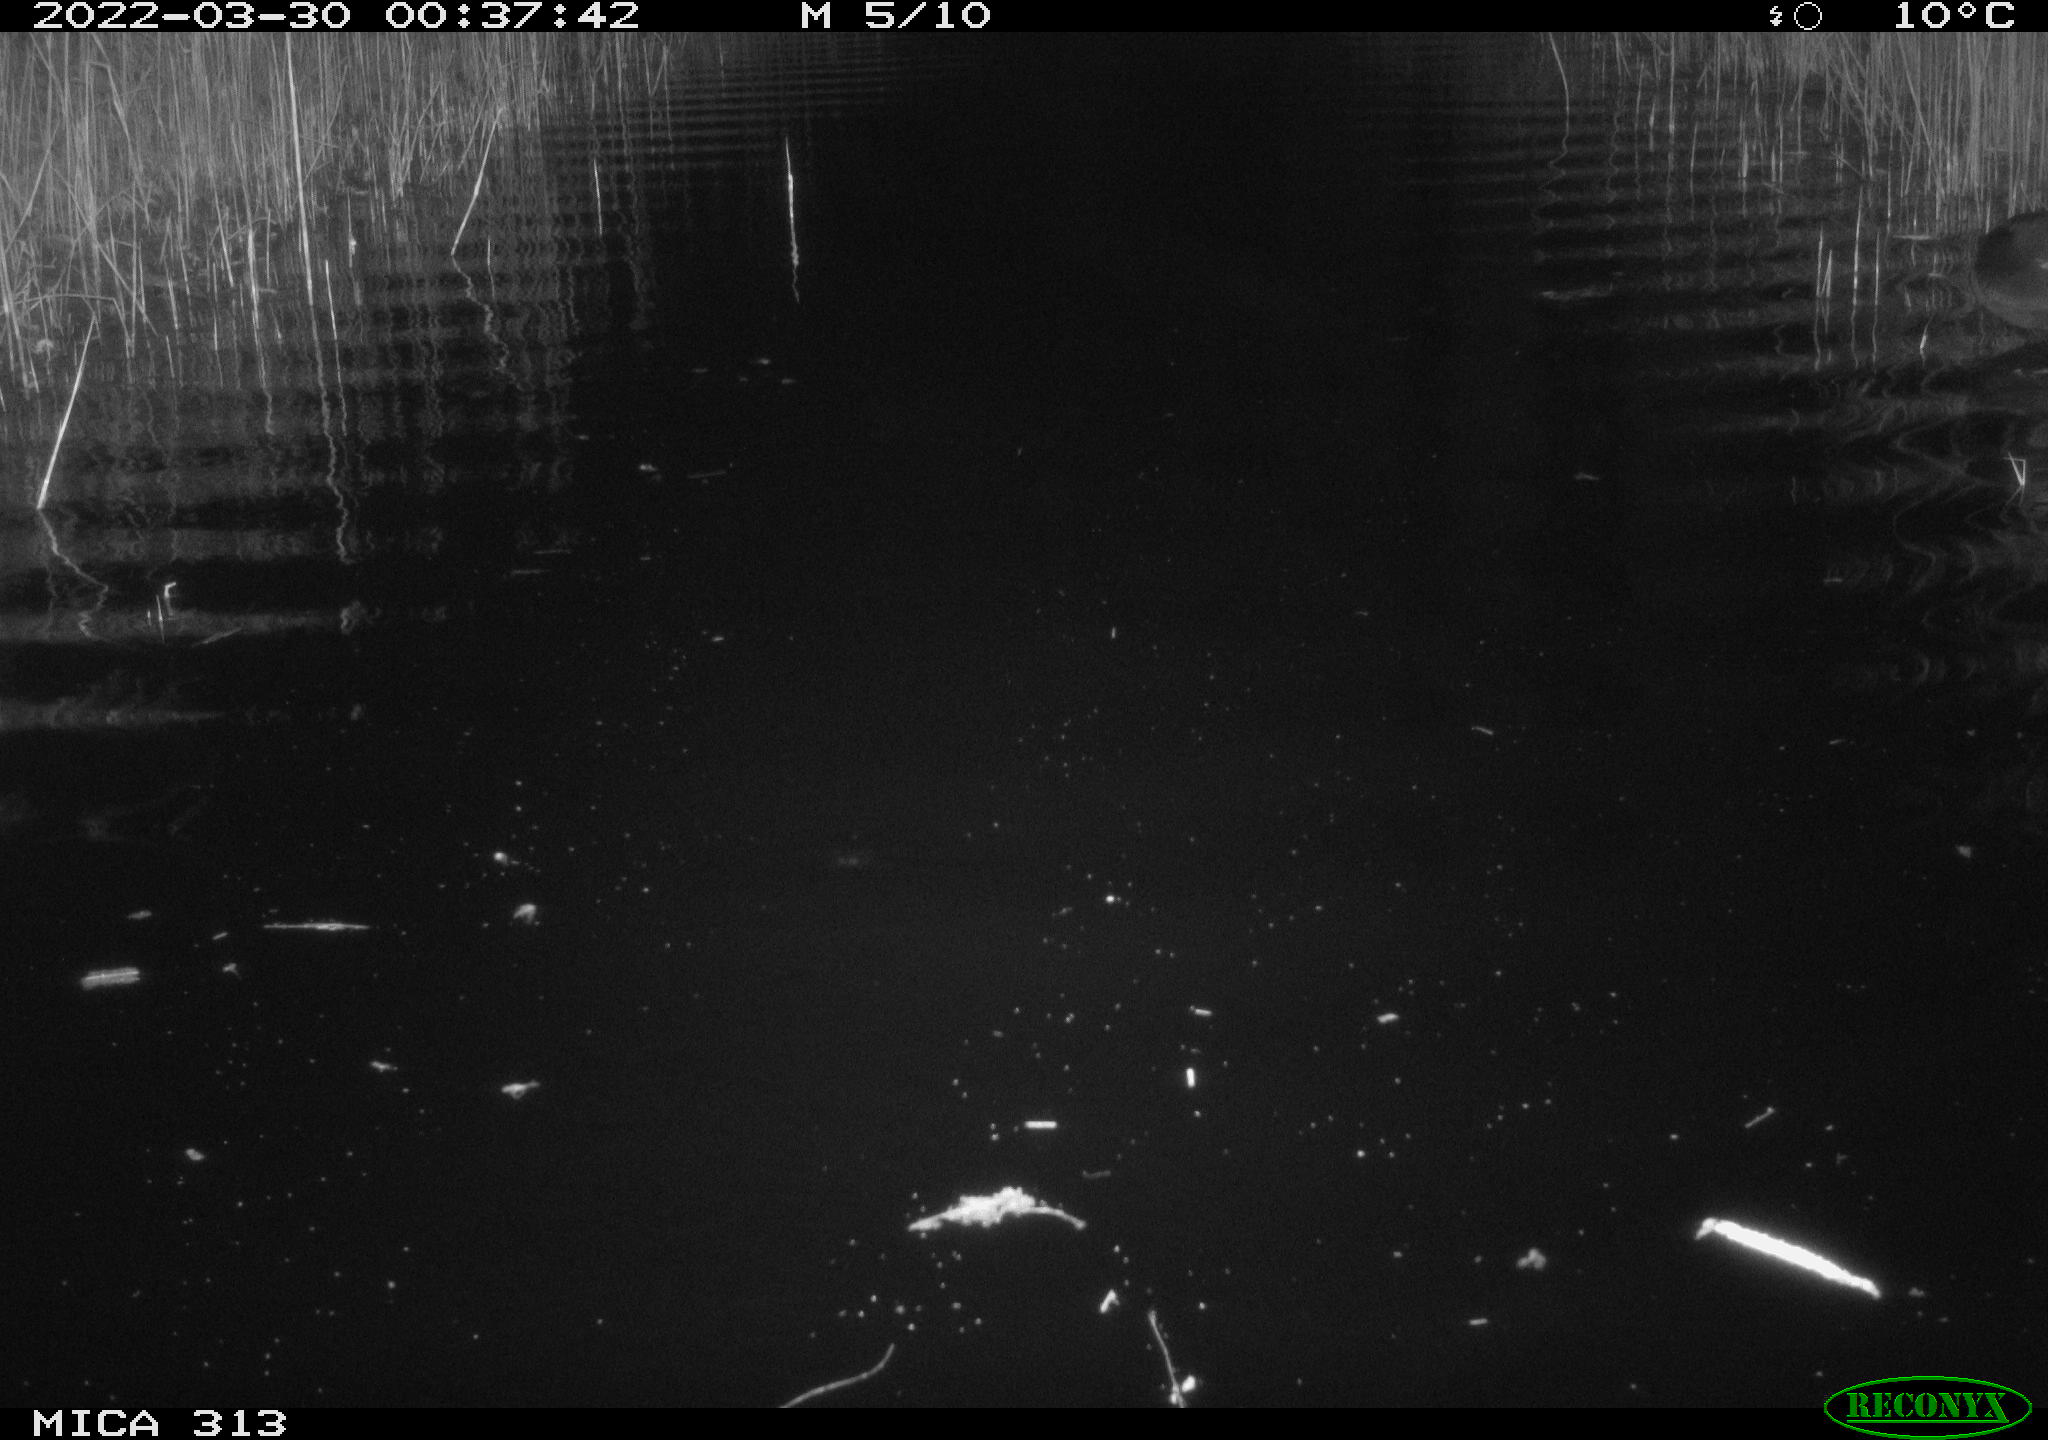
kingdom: Animalia
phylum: Chordata
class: Aves
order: Anseriformes
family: Anatidae
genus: Anas
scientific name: Anas platyrhynchos
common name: Mallard
